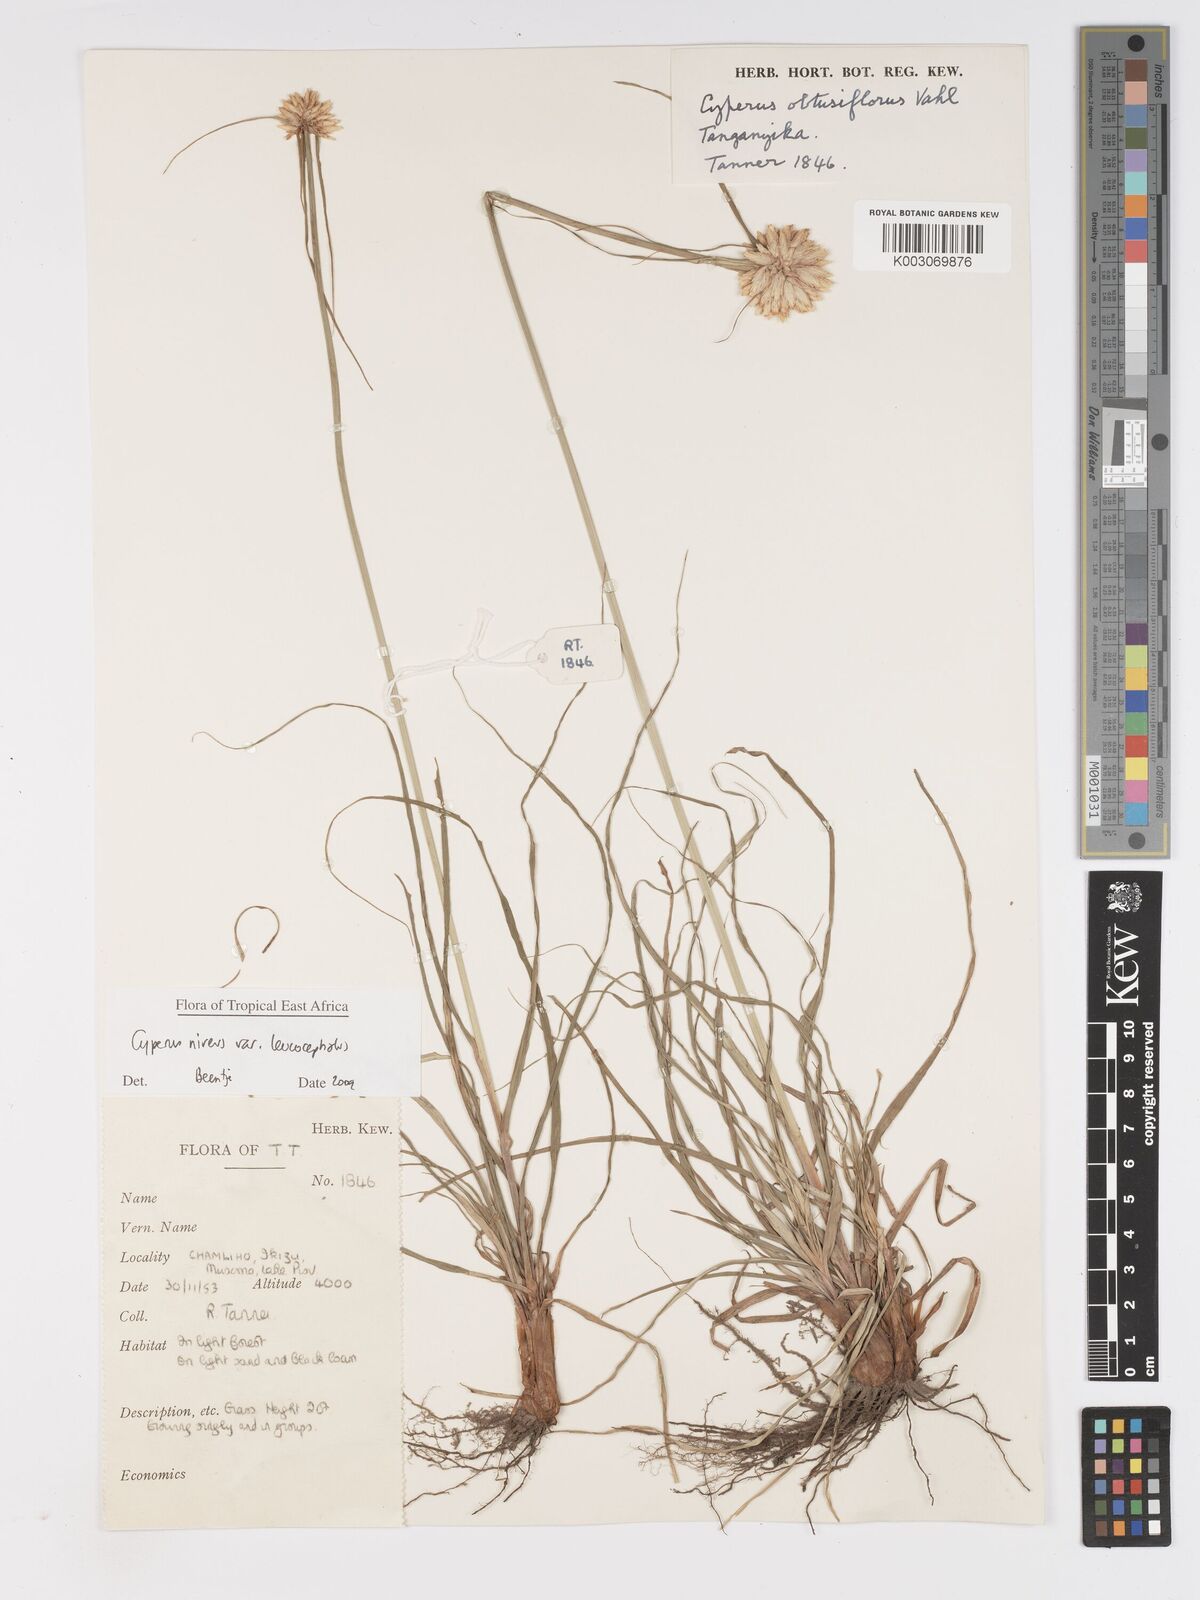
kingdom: Plantae
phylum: Tracheophyta
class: Liliopsida
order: Poales
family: Cyperaceae
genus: Cyperus
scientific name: Cyperus niveus
